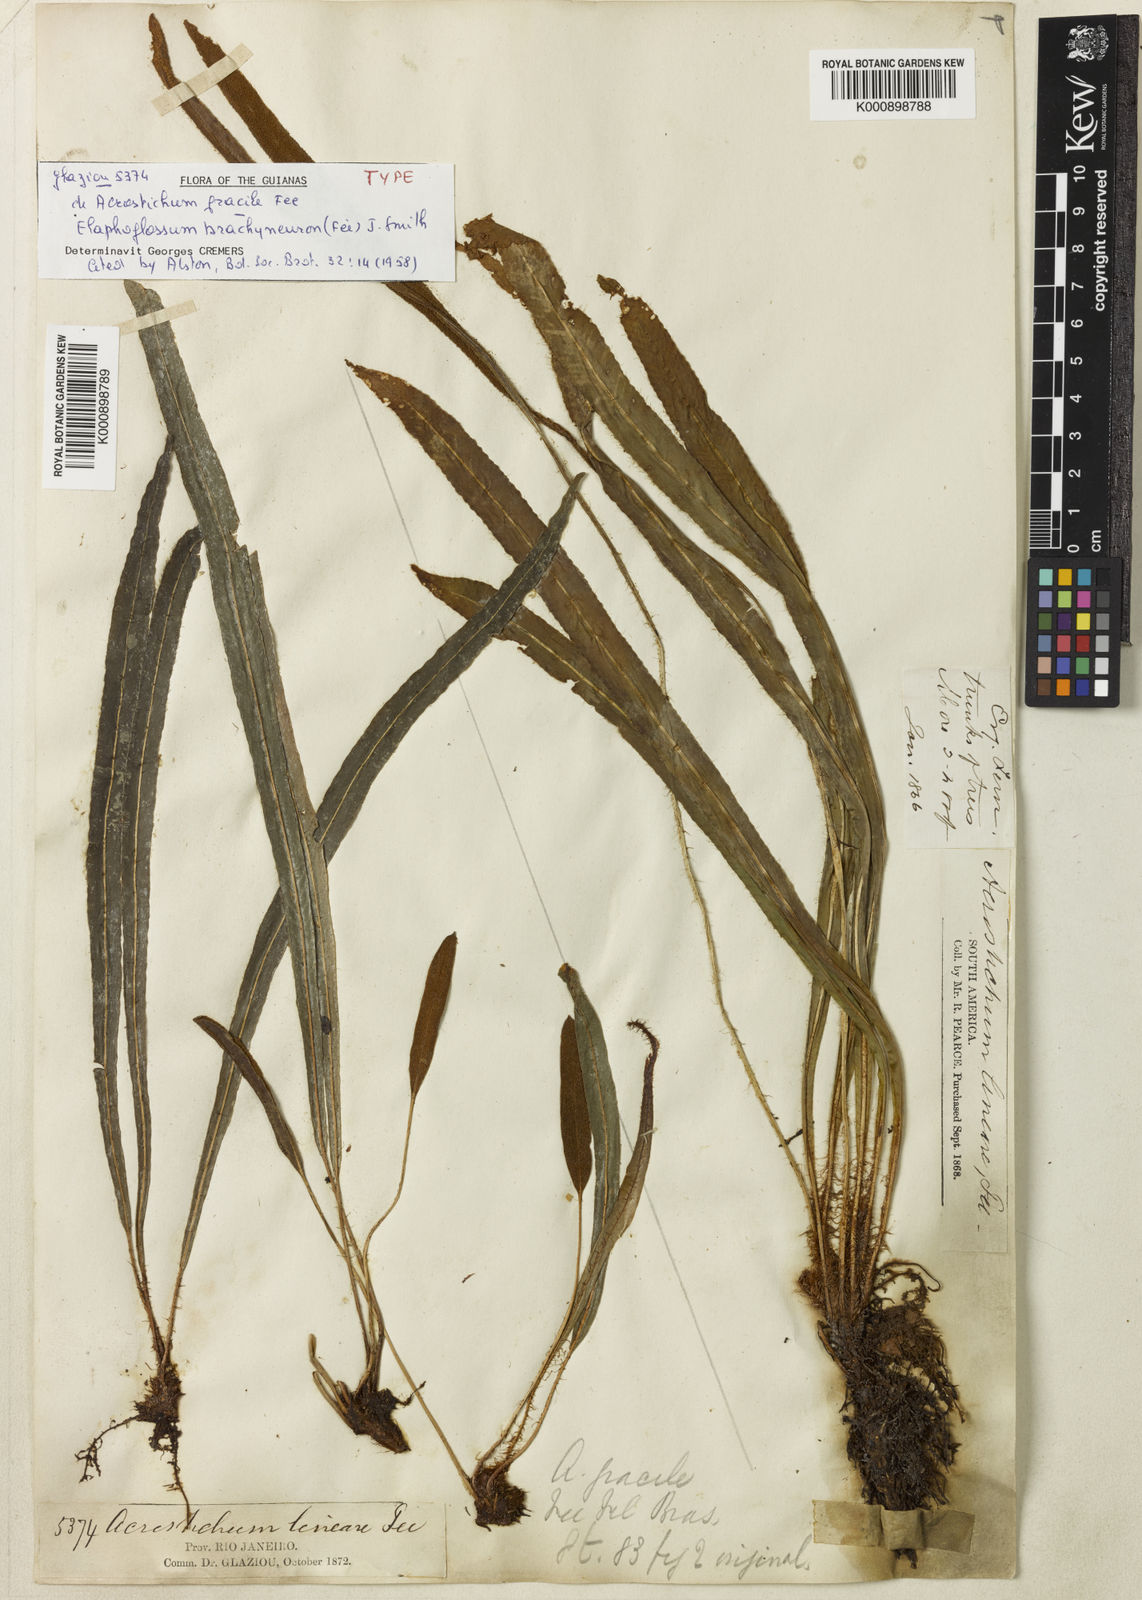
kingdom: Plantae
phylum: Tracheophyta
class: Polypodiopsida
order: Polypodiales
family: Dryopteridaceae
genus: Elaphoglossum
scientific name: Elaphoglossum
